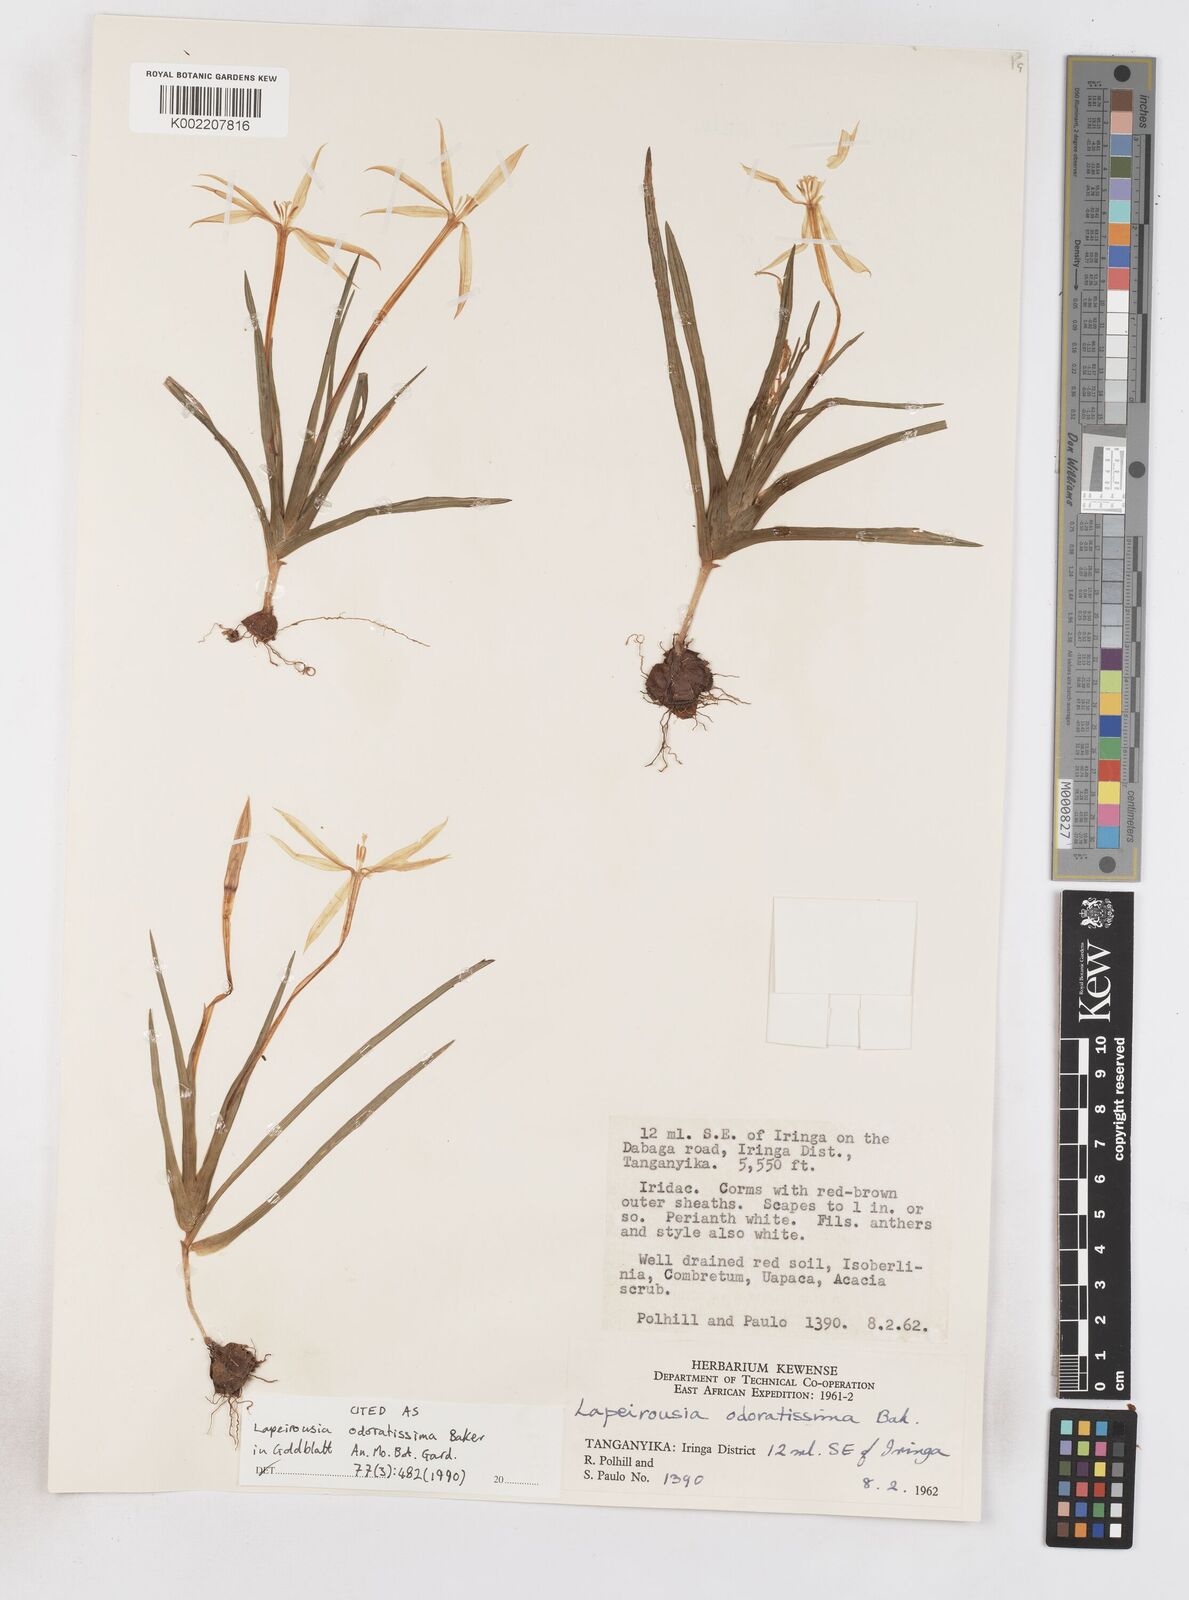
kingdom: Plantae
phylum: Tracheophyta
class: Liliopsida
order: Asparagales
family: Iridaceae
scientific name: Iridaceae
